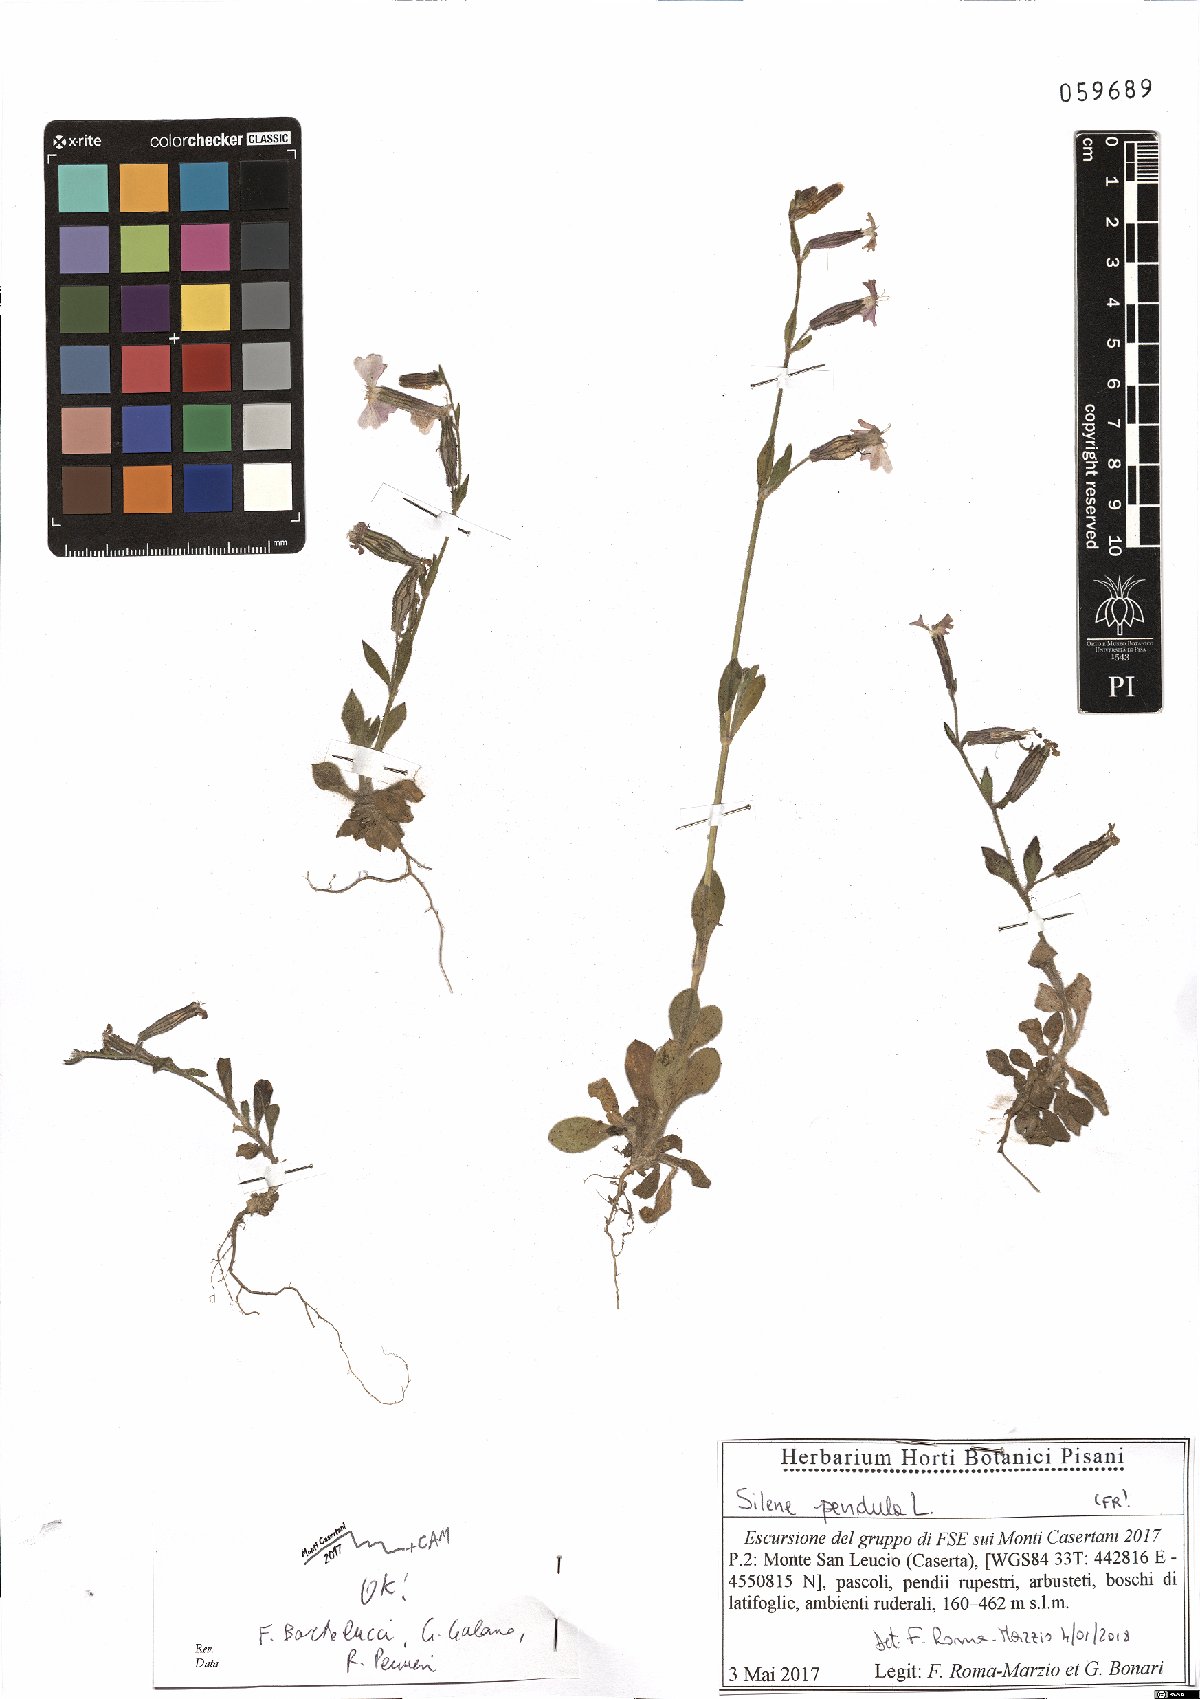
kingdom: Plantae
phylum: Tracheophyta
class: Magnoliopsida
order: Caryophyllales
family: Caryophyllaceae
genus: Silene
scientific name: Silene pendula
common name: Nodding catchfly
